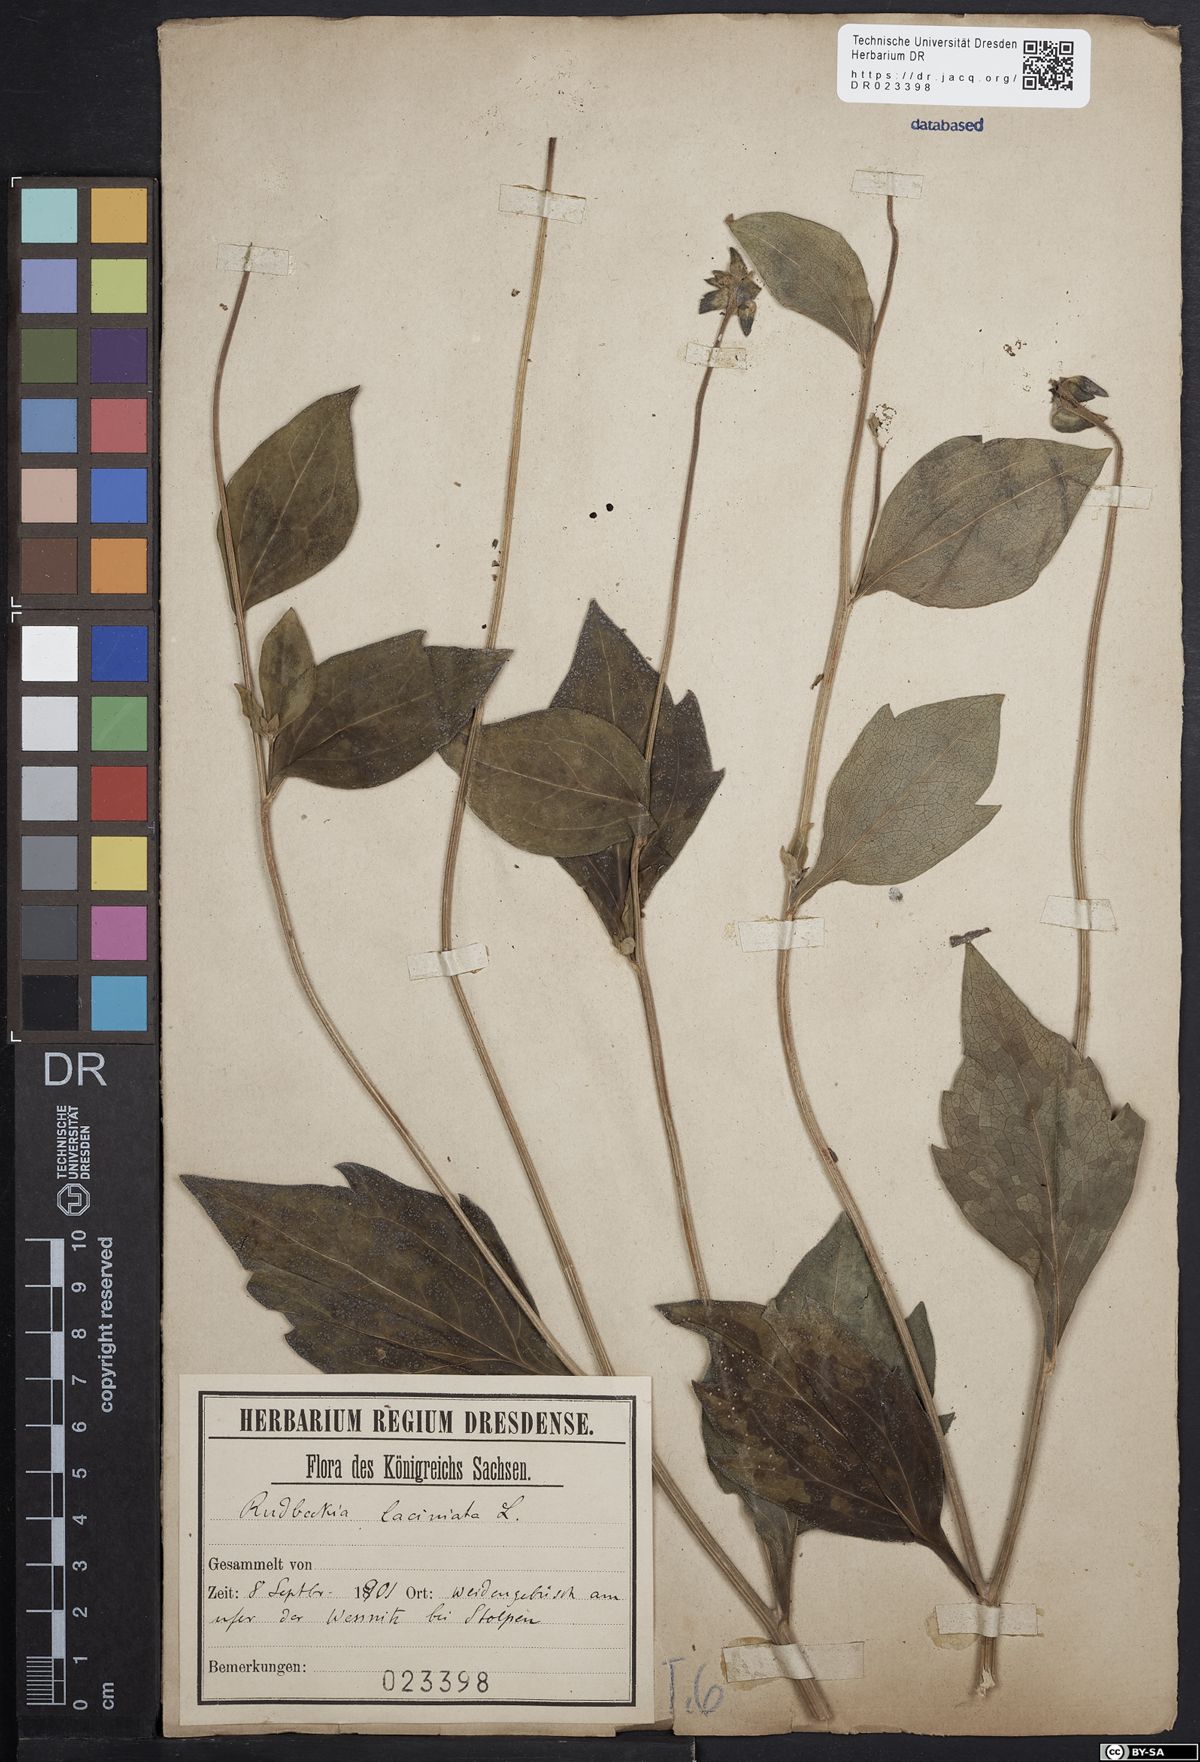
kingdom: Plantae
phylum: Tracheophyta
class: Magnoliopsida
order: Asterales
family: Asteraceae
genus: Rudbeckia
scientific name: Rudbeckia laciniata
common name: Coneflower
